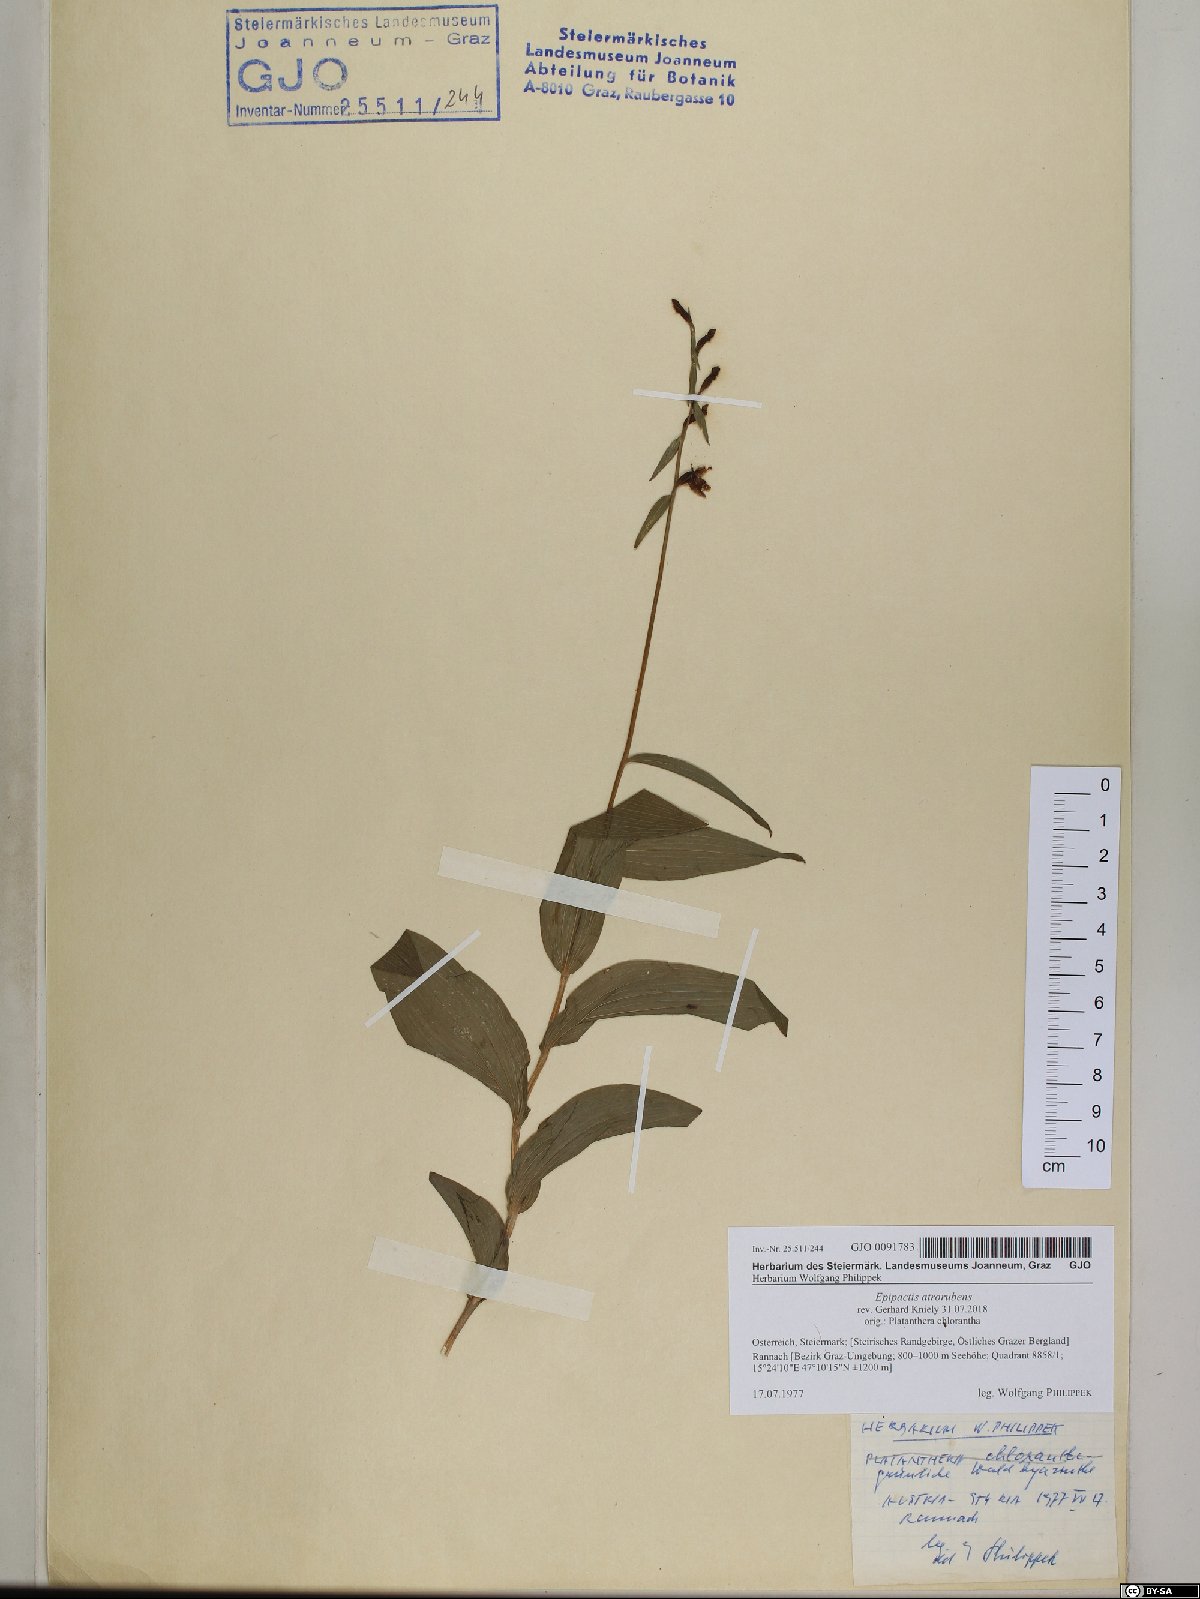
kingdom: Plantae
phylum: Tracheophyta
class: Liliopsida
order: Asparagales
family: Orchidaceae
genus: Epipactis
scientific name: Epipactis atrorubens
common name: Dark-red helleborine
